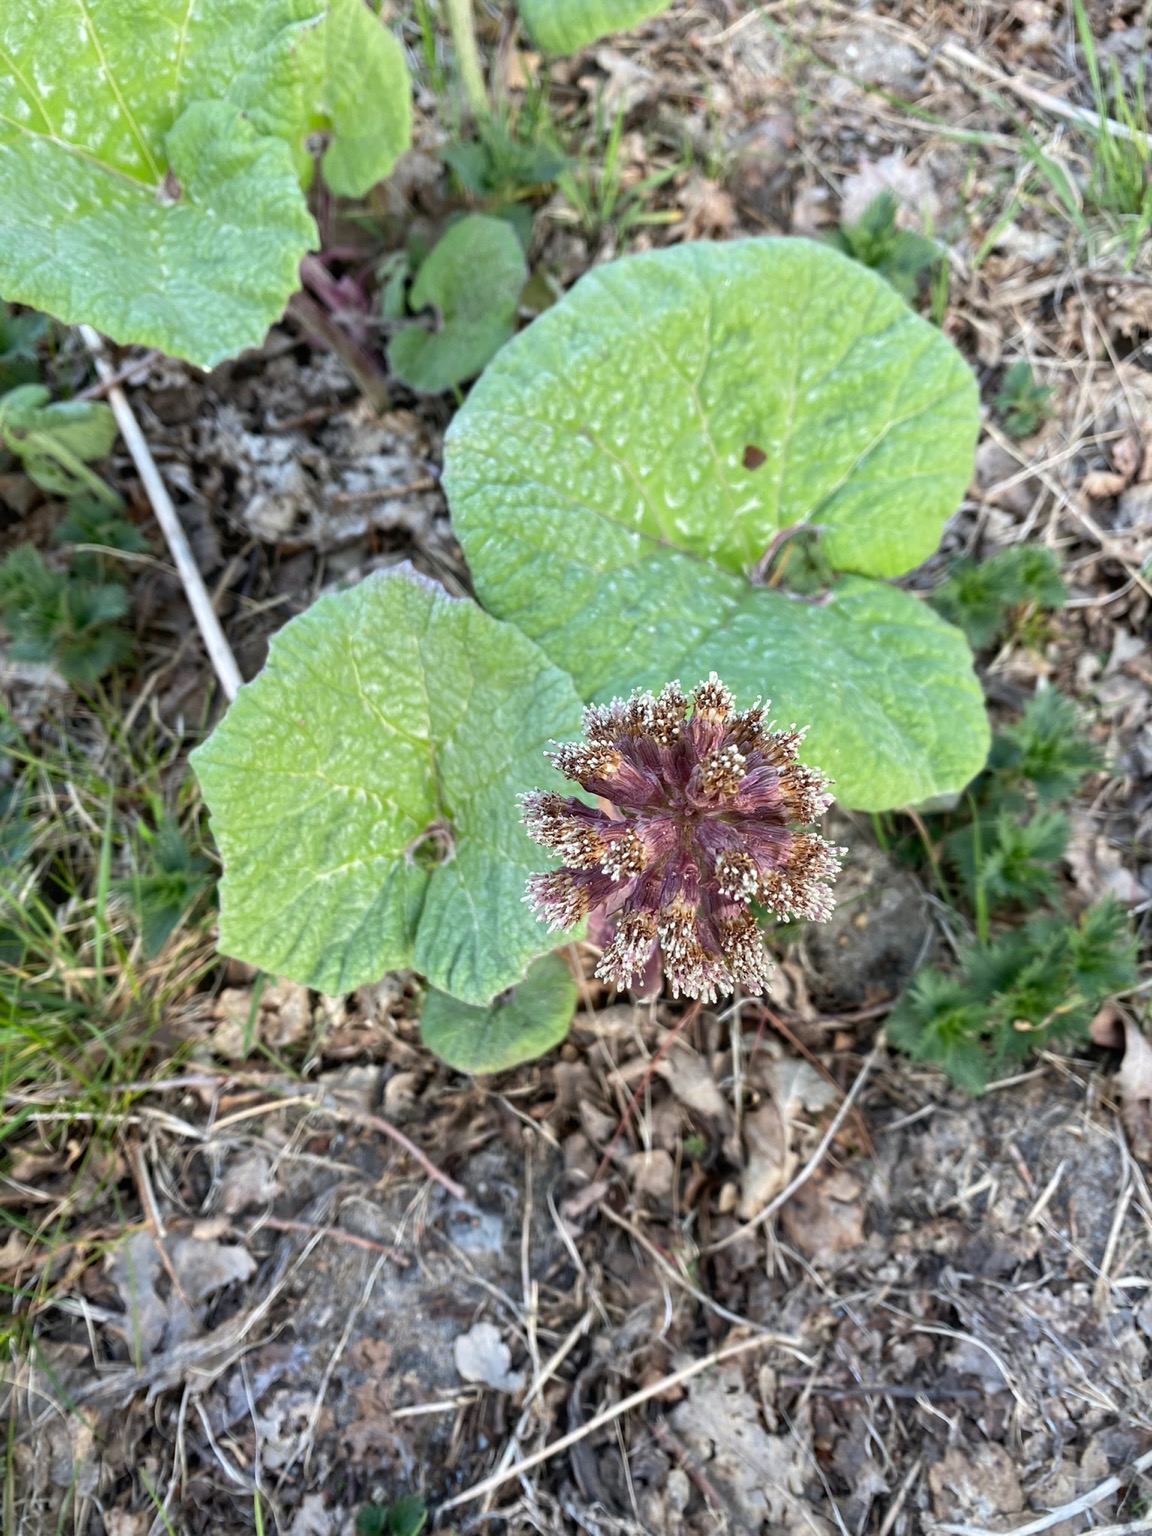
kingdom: Plantae
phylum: Tracheophyta
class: Magnoliopsida
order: Asterales
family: Asteraceae
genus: Petasites
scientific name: Petasites hybridus
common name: Rød hestehov
